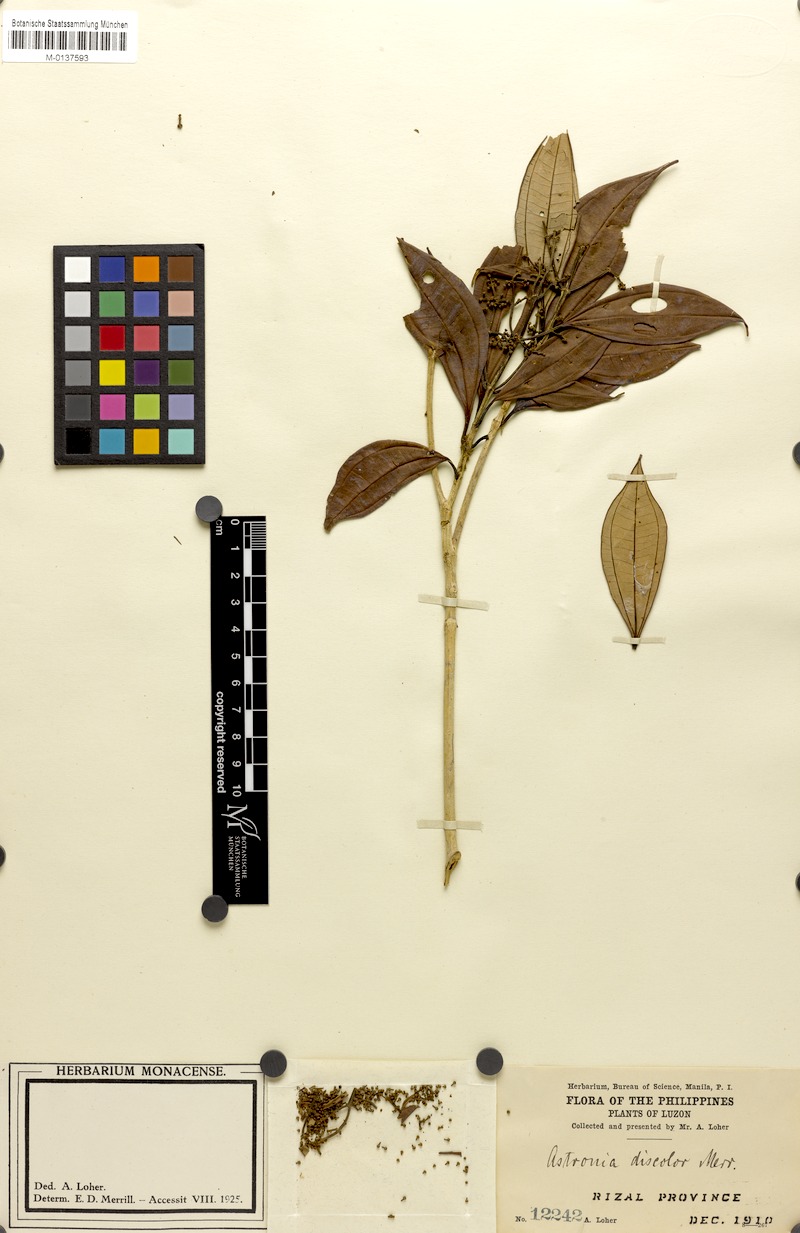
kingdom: Plantae
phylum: Tracheophyta
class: Magnoliopsida
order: Myrtales
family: Melastomataceae
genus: Astronia
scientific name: Astronia cumingiana
